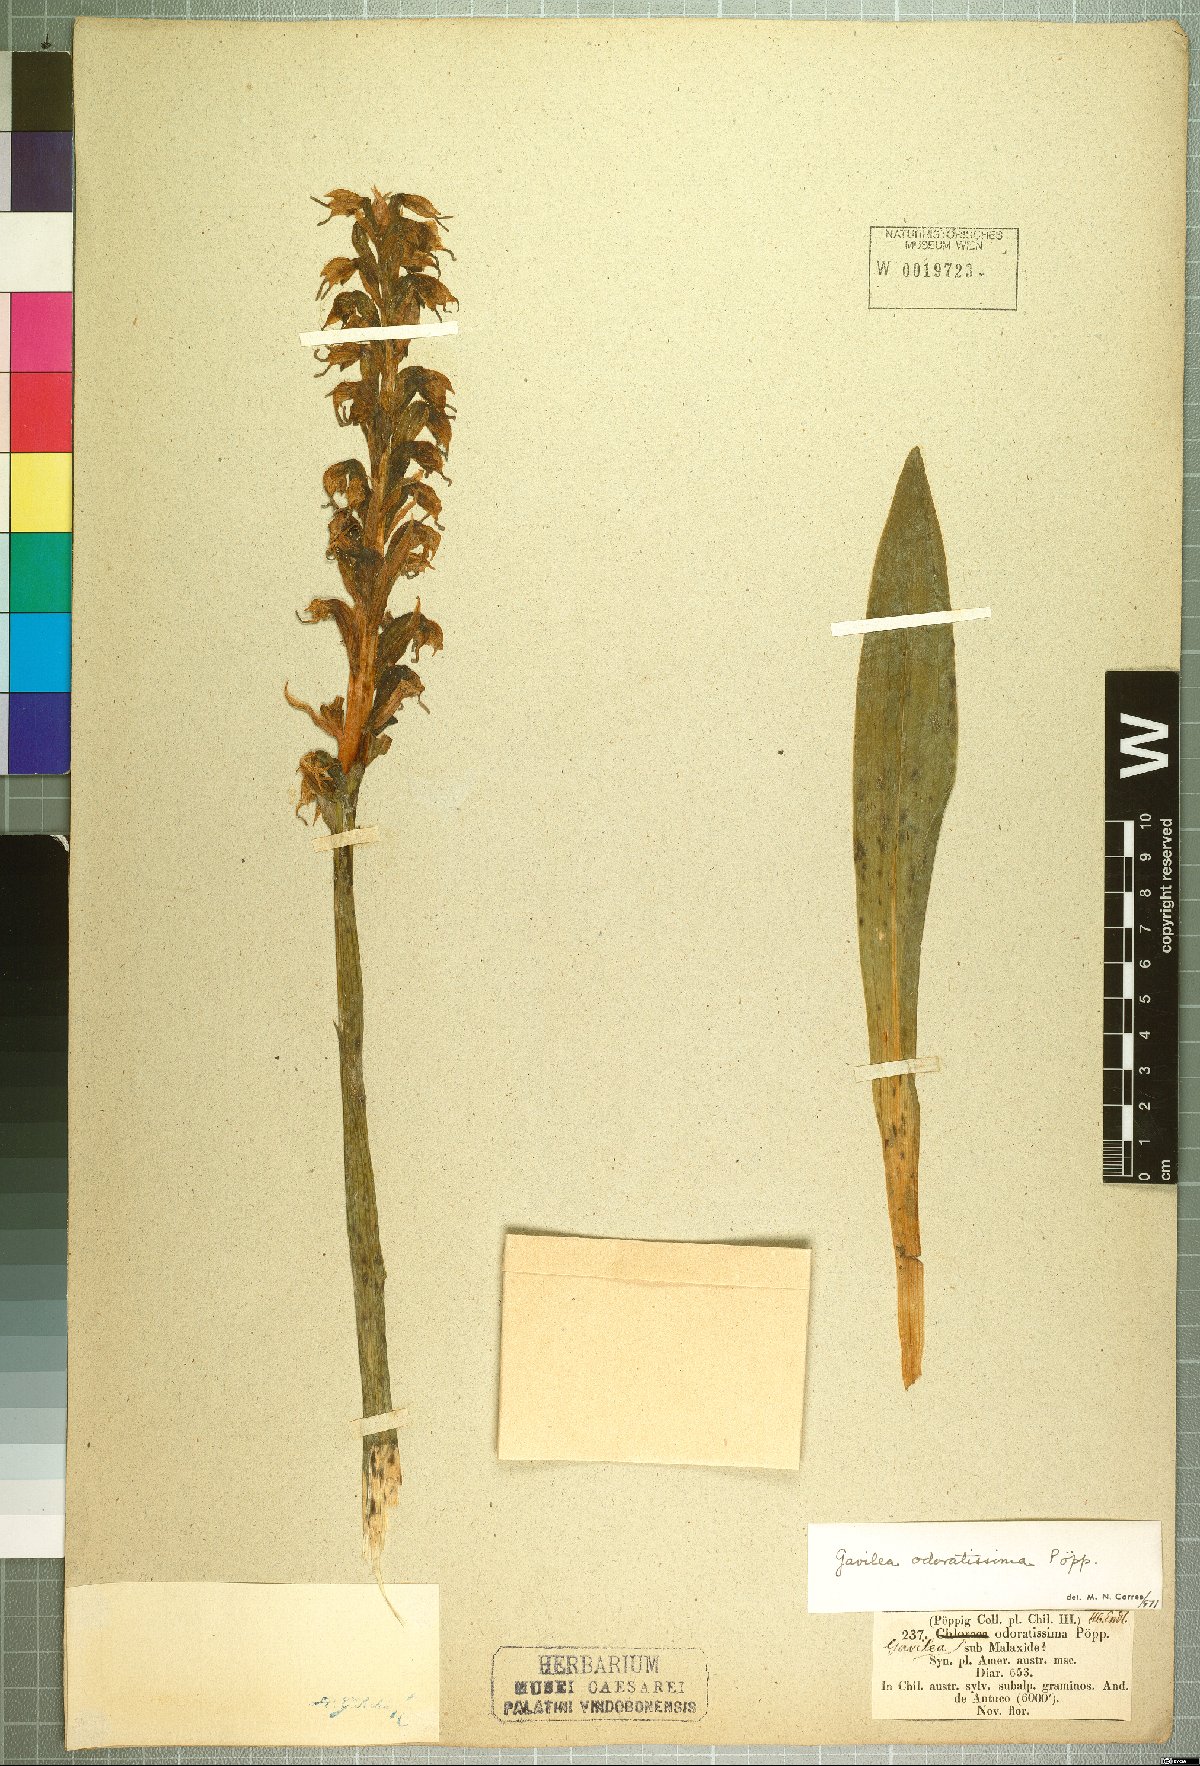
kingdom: Plantae
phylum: Tracheophyta
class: Liliopsida
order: Asparagales
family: Orchidaceae
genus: Gavilea
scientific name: Gavilea odoratissima
